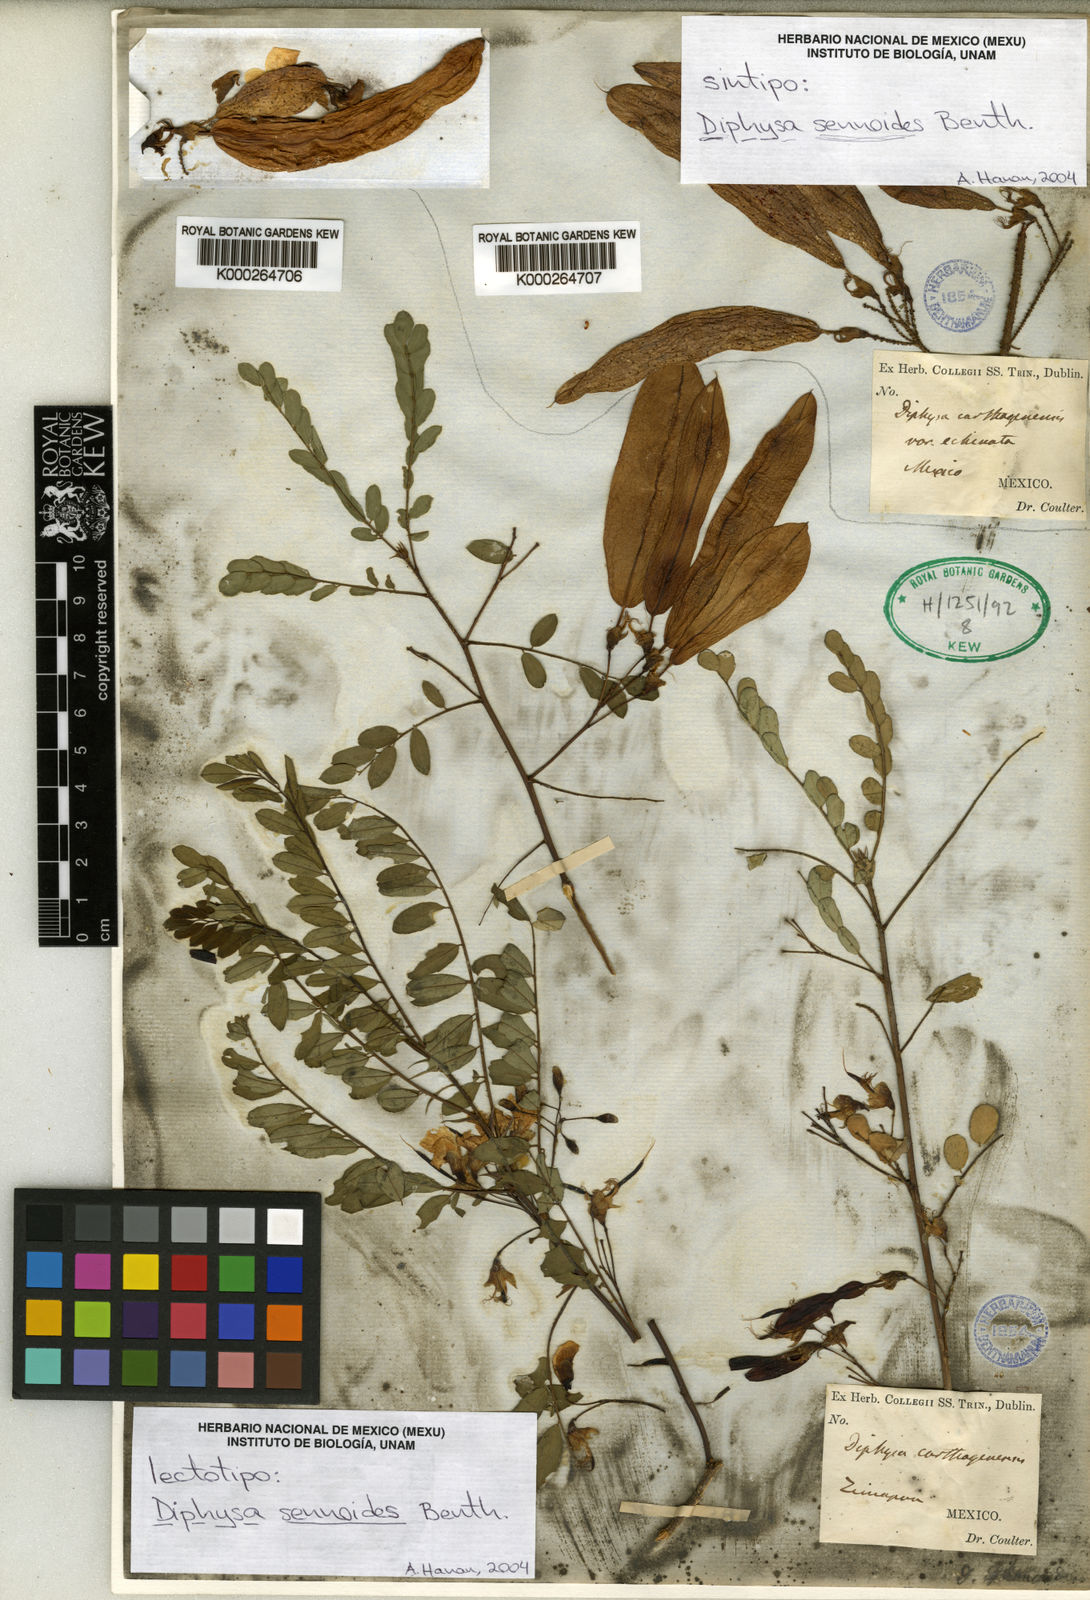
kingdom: Plantae
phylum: Tracheophyta
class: Magnoliopsida
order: Fabales
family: Fabaceae
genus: Diphysa
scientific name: Diphysa sennoides
